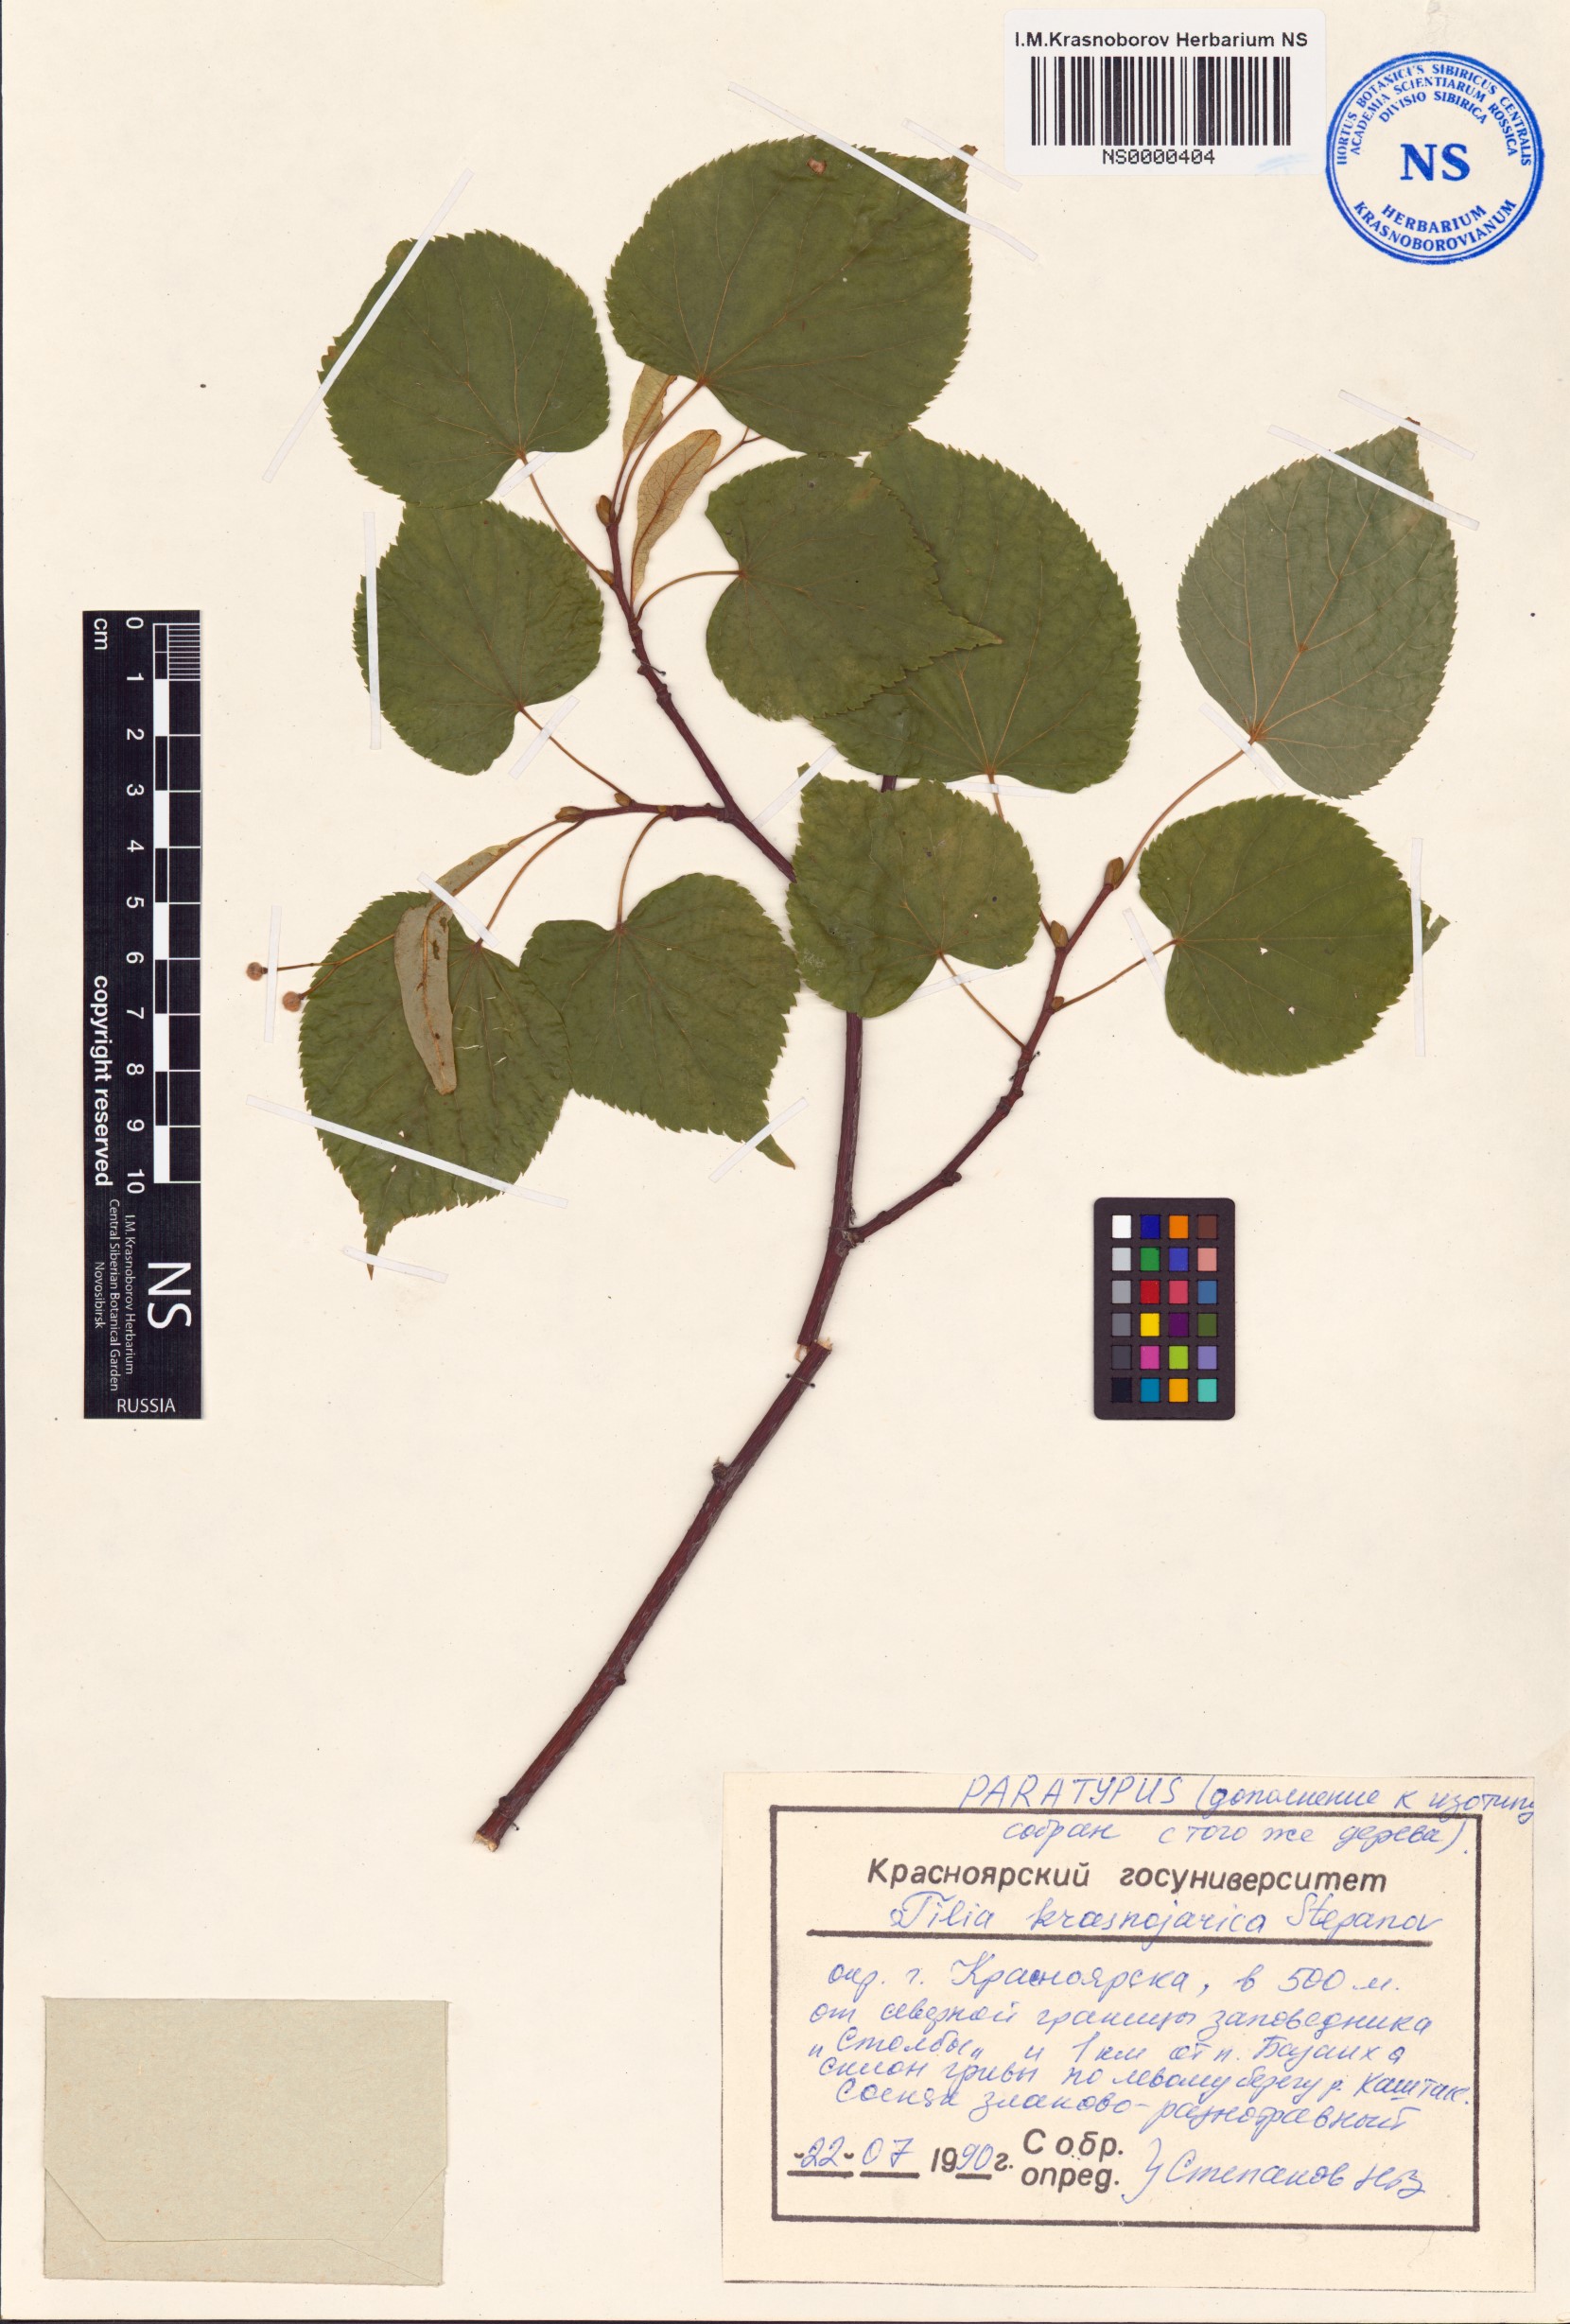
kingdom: Plantae
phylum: Tracheophyta
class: Magnoliopsida
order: Malvales
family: Malvaceae
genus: Tilia
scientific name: Tilia
